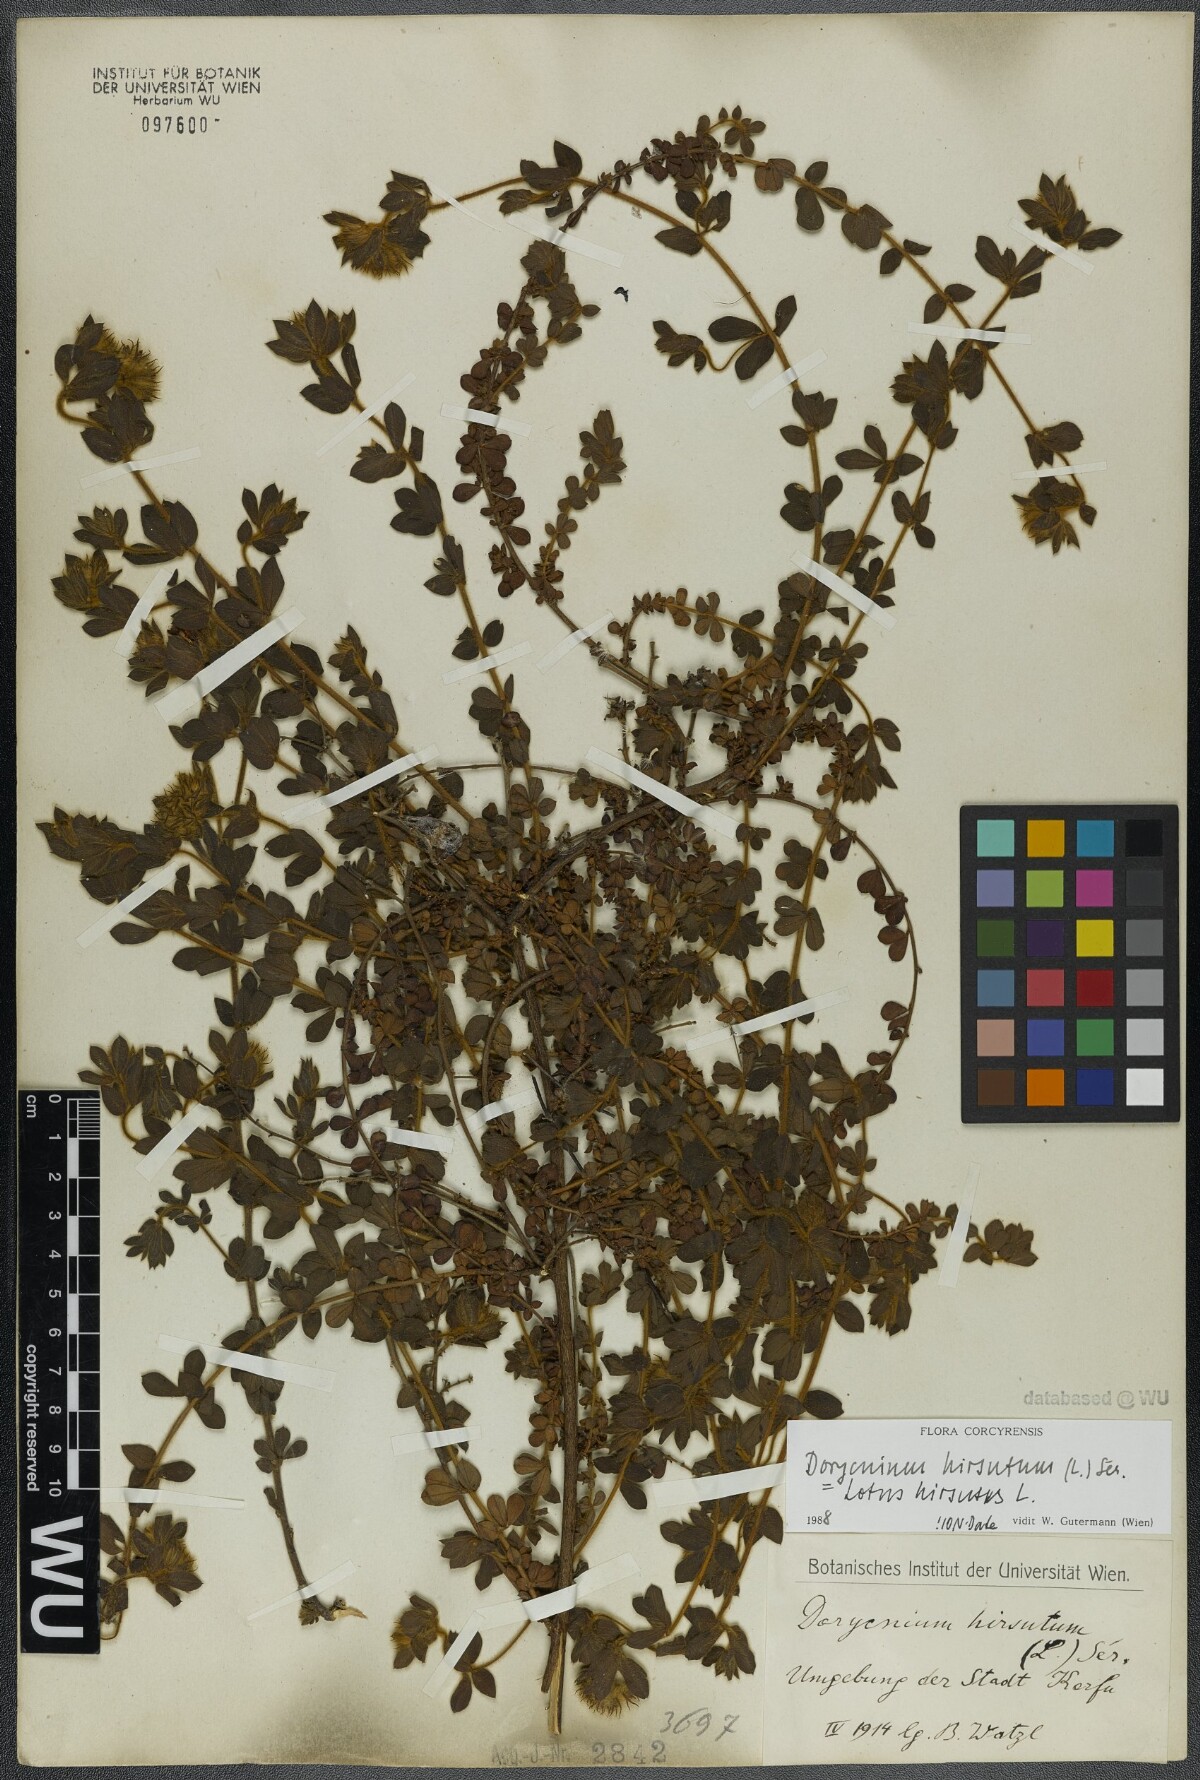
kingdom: Plantae
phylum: Tracheophyta
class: Magnoliopsida
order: Fabales
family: Fabaceae
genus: Lotus
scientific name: Lotus hirsutus
